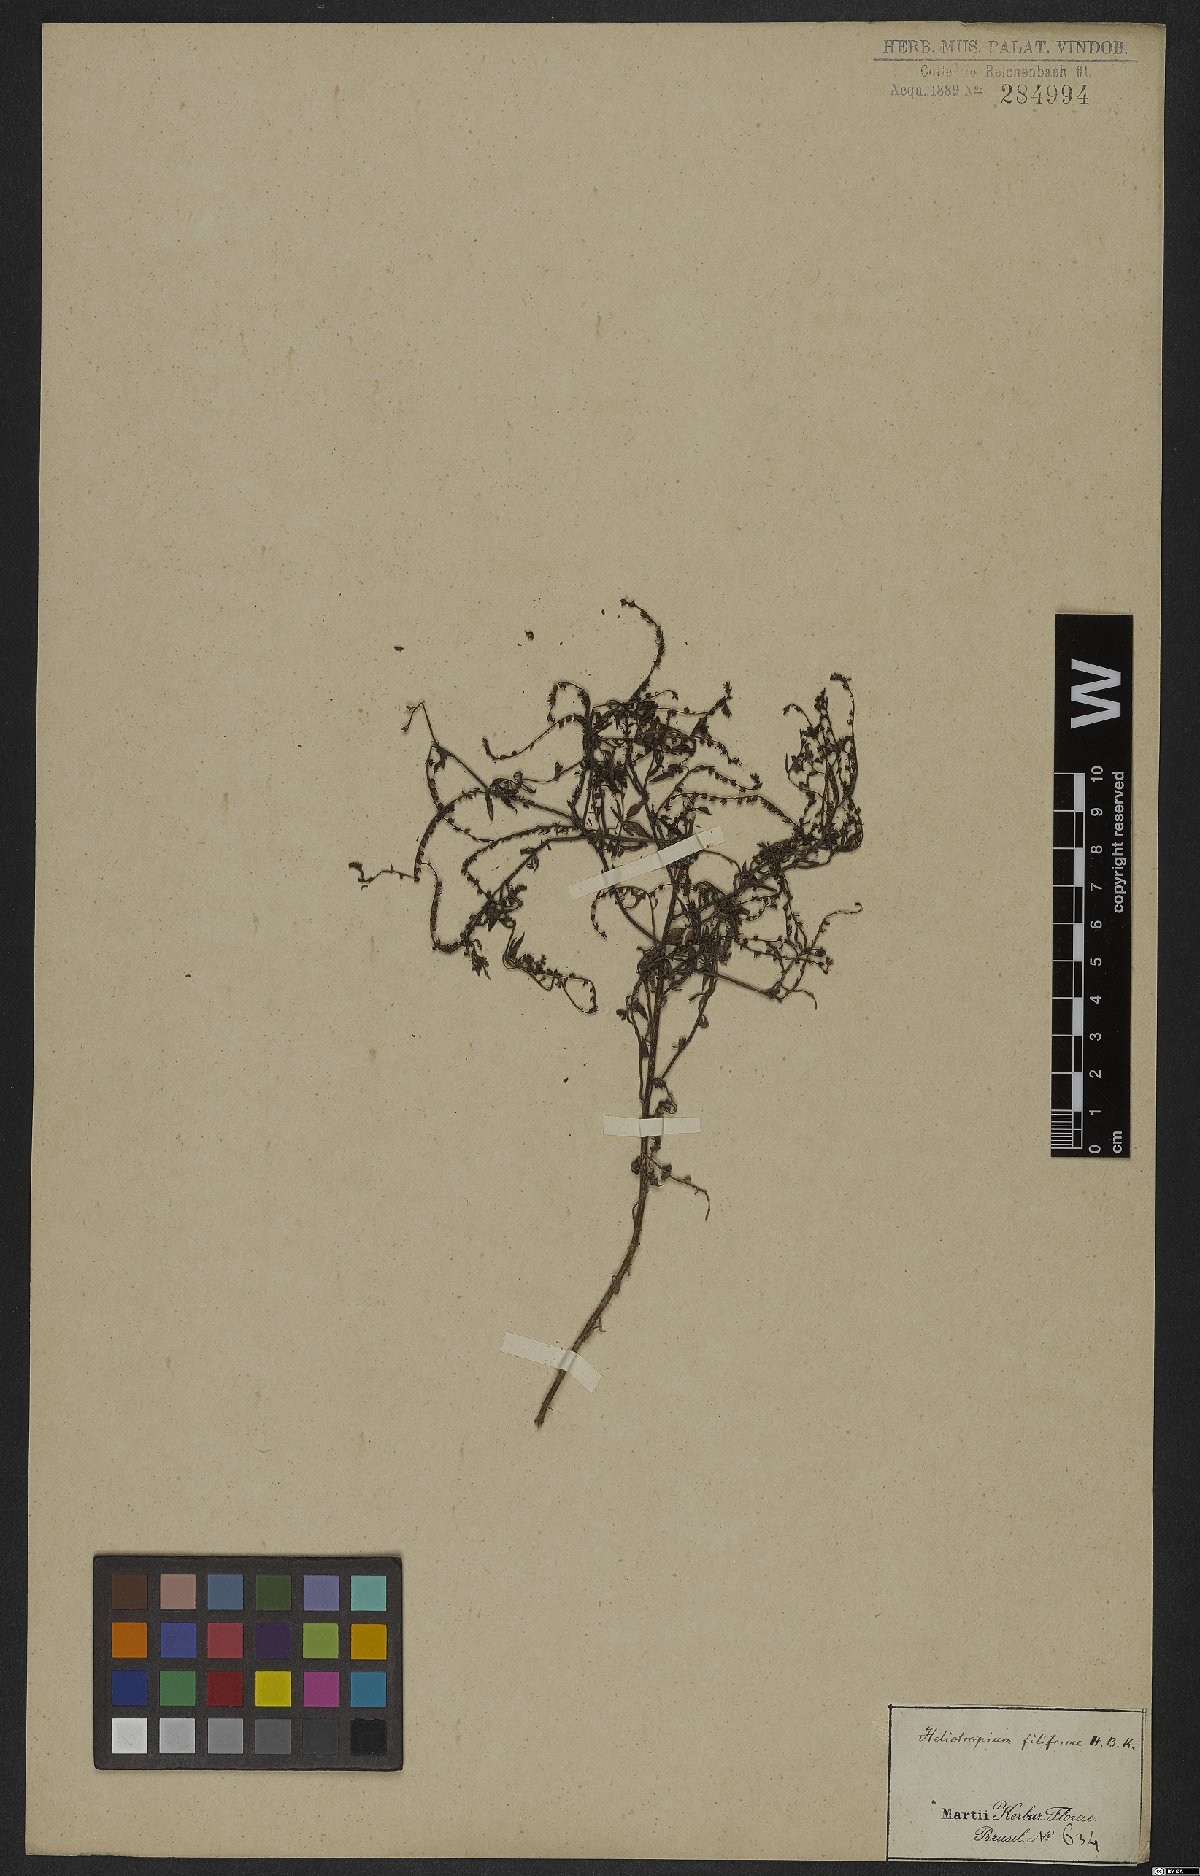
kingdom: Plantae
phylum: Tracheophyta
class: Magnoliopsida
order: Boraginales
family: Heliotropiaceae
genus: Euploca
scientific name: Euploca filiformis
